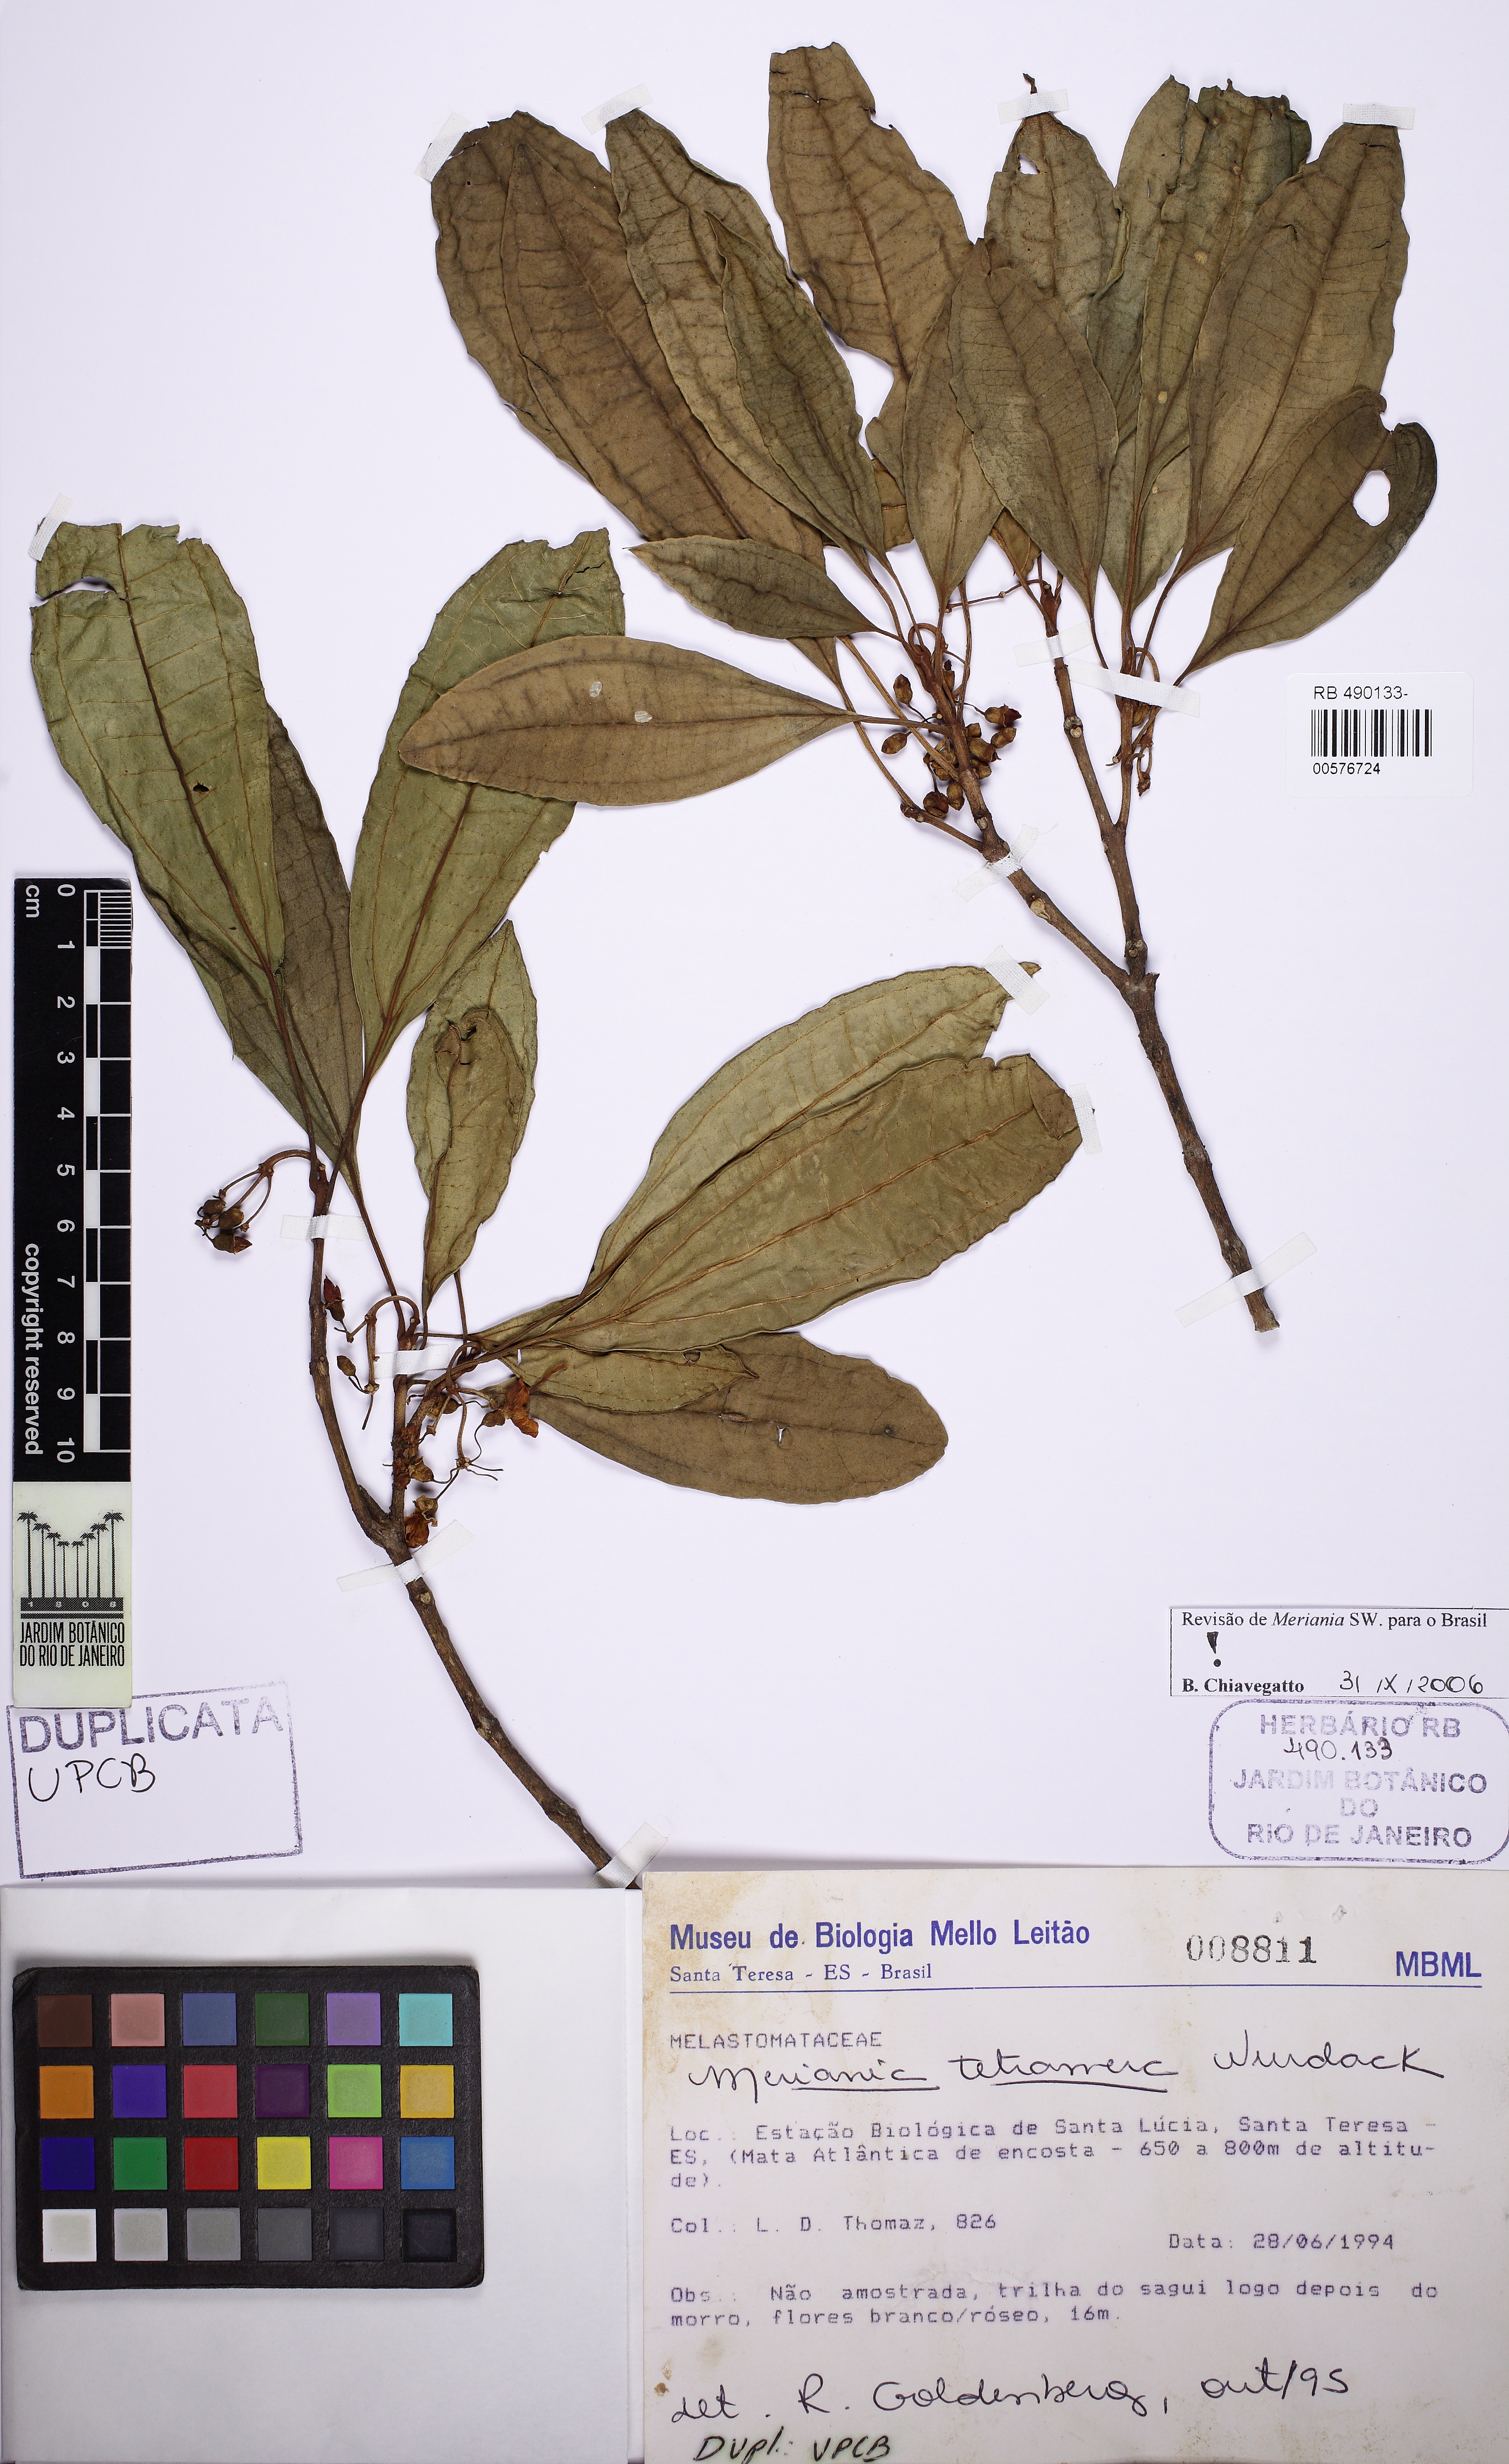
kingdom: Plantae
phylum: Tracheophyta
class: Magnoliopsida
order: Myrtales
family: Melastomataceae
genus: Meriania
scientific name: Meriania tetramera
